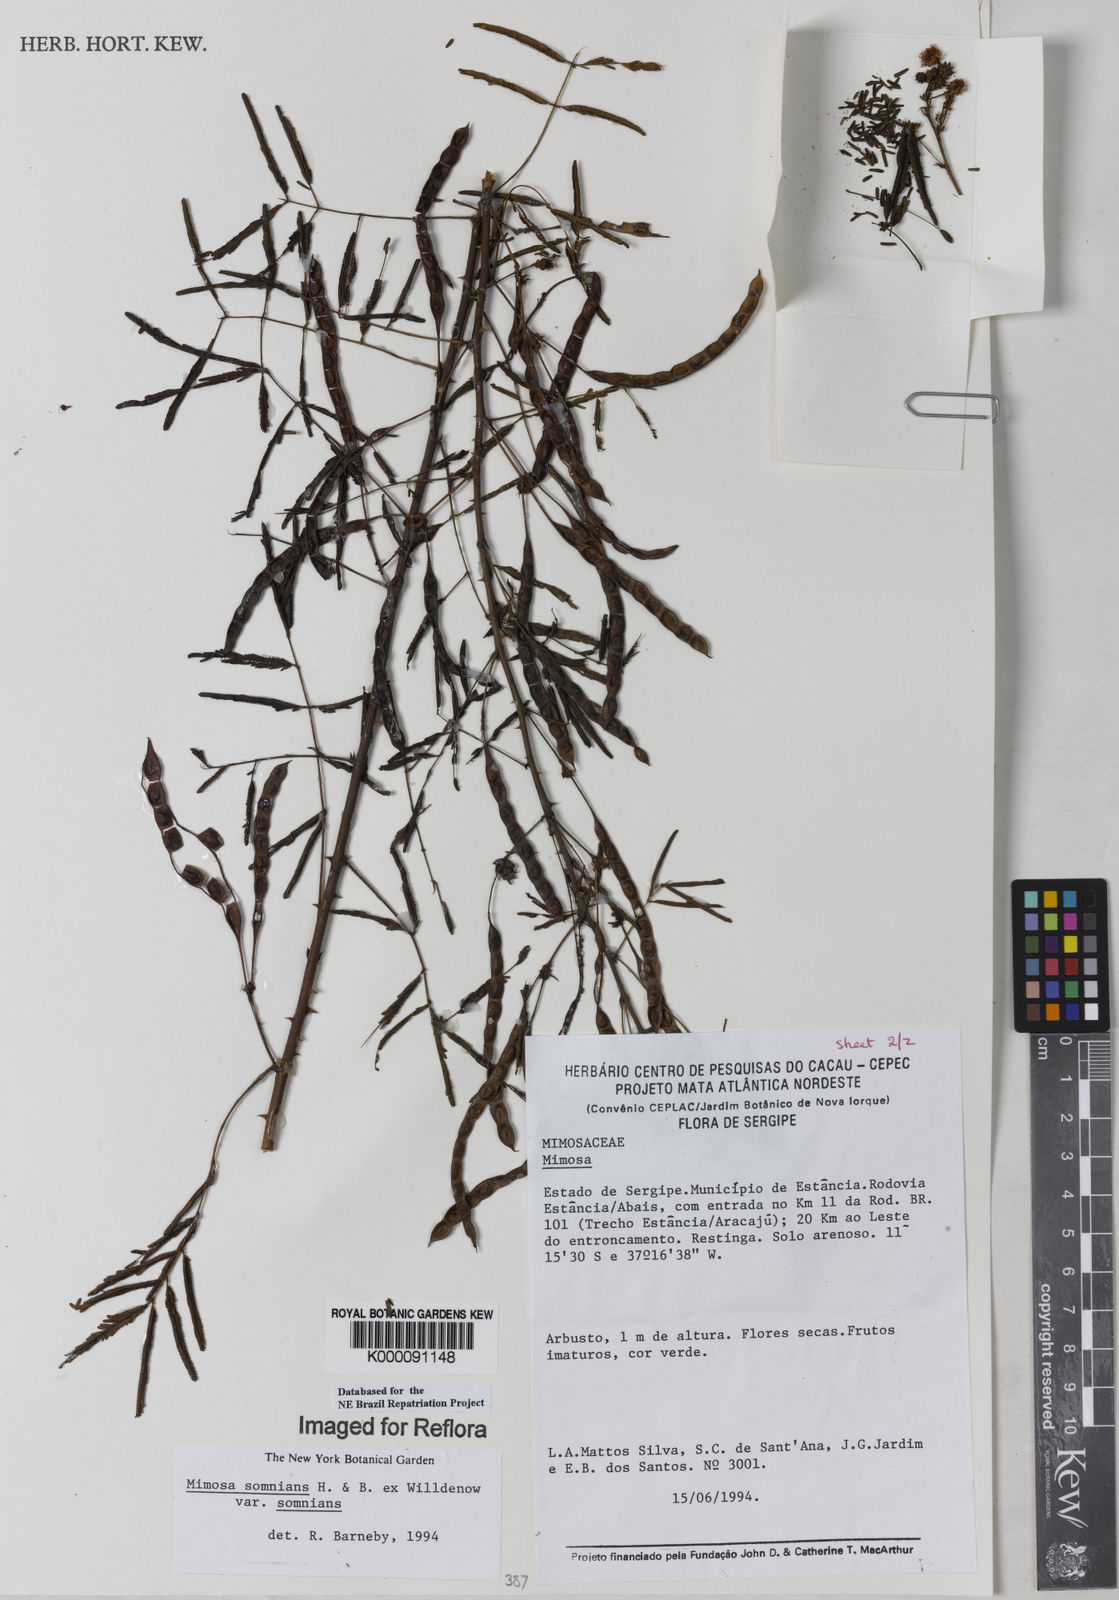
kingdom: Plantae
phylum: Tracheophyta
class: Magnoliopsida
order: Fabales
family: Fabaceae
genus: Mimosa
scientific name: Mimosa somnians
